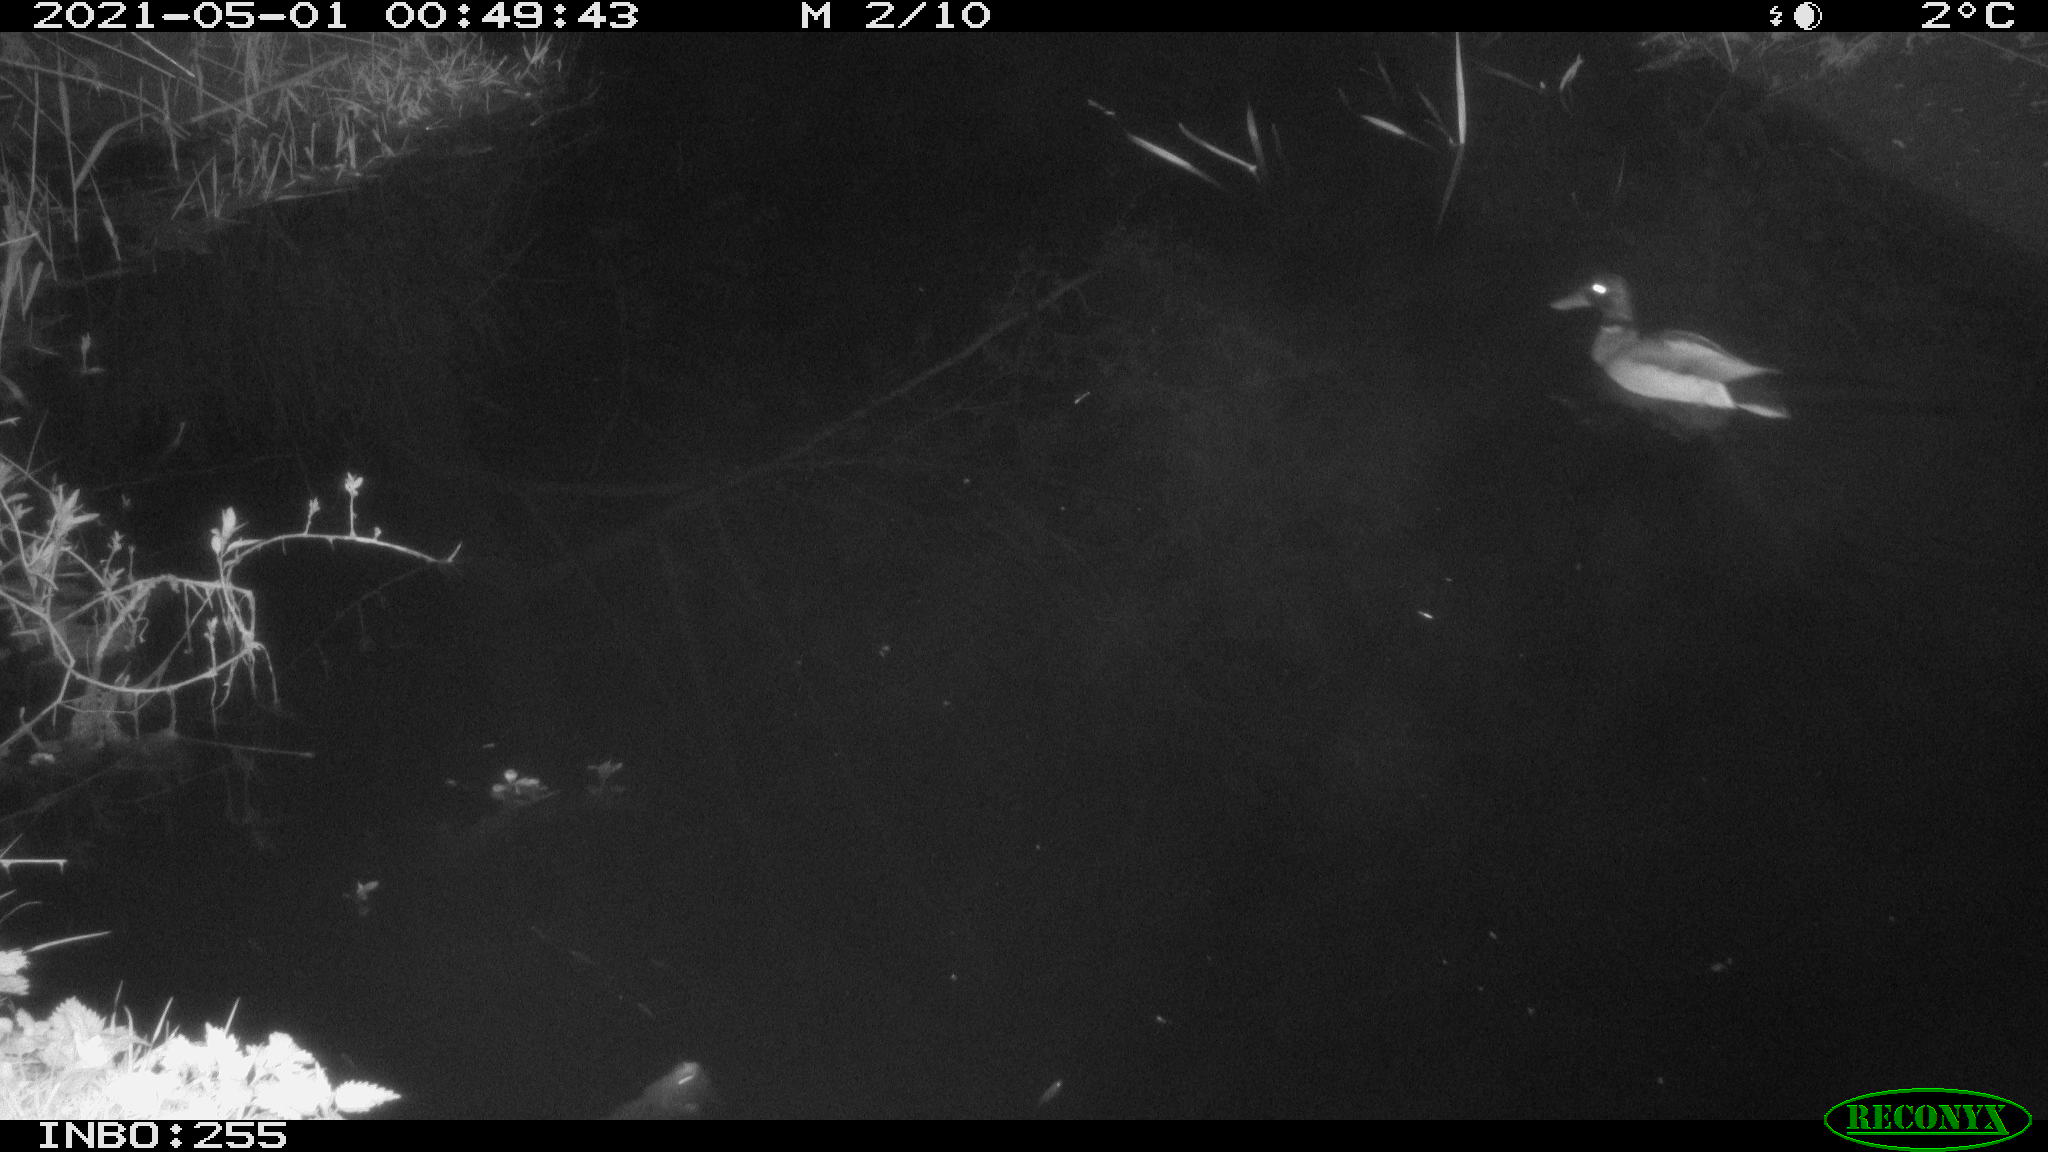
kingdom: Animalia
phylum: Chordata
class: Aves
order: Anseriformes
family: Anatidae
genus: Anas
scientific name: Anas platyrhynchos
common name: Mallard
